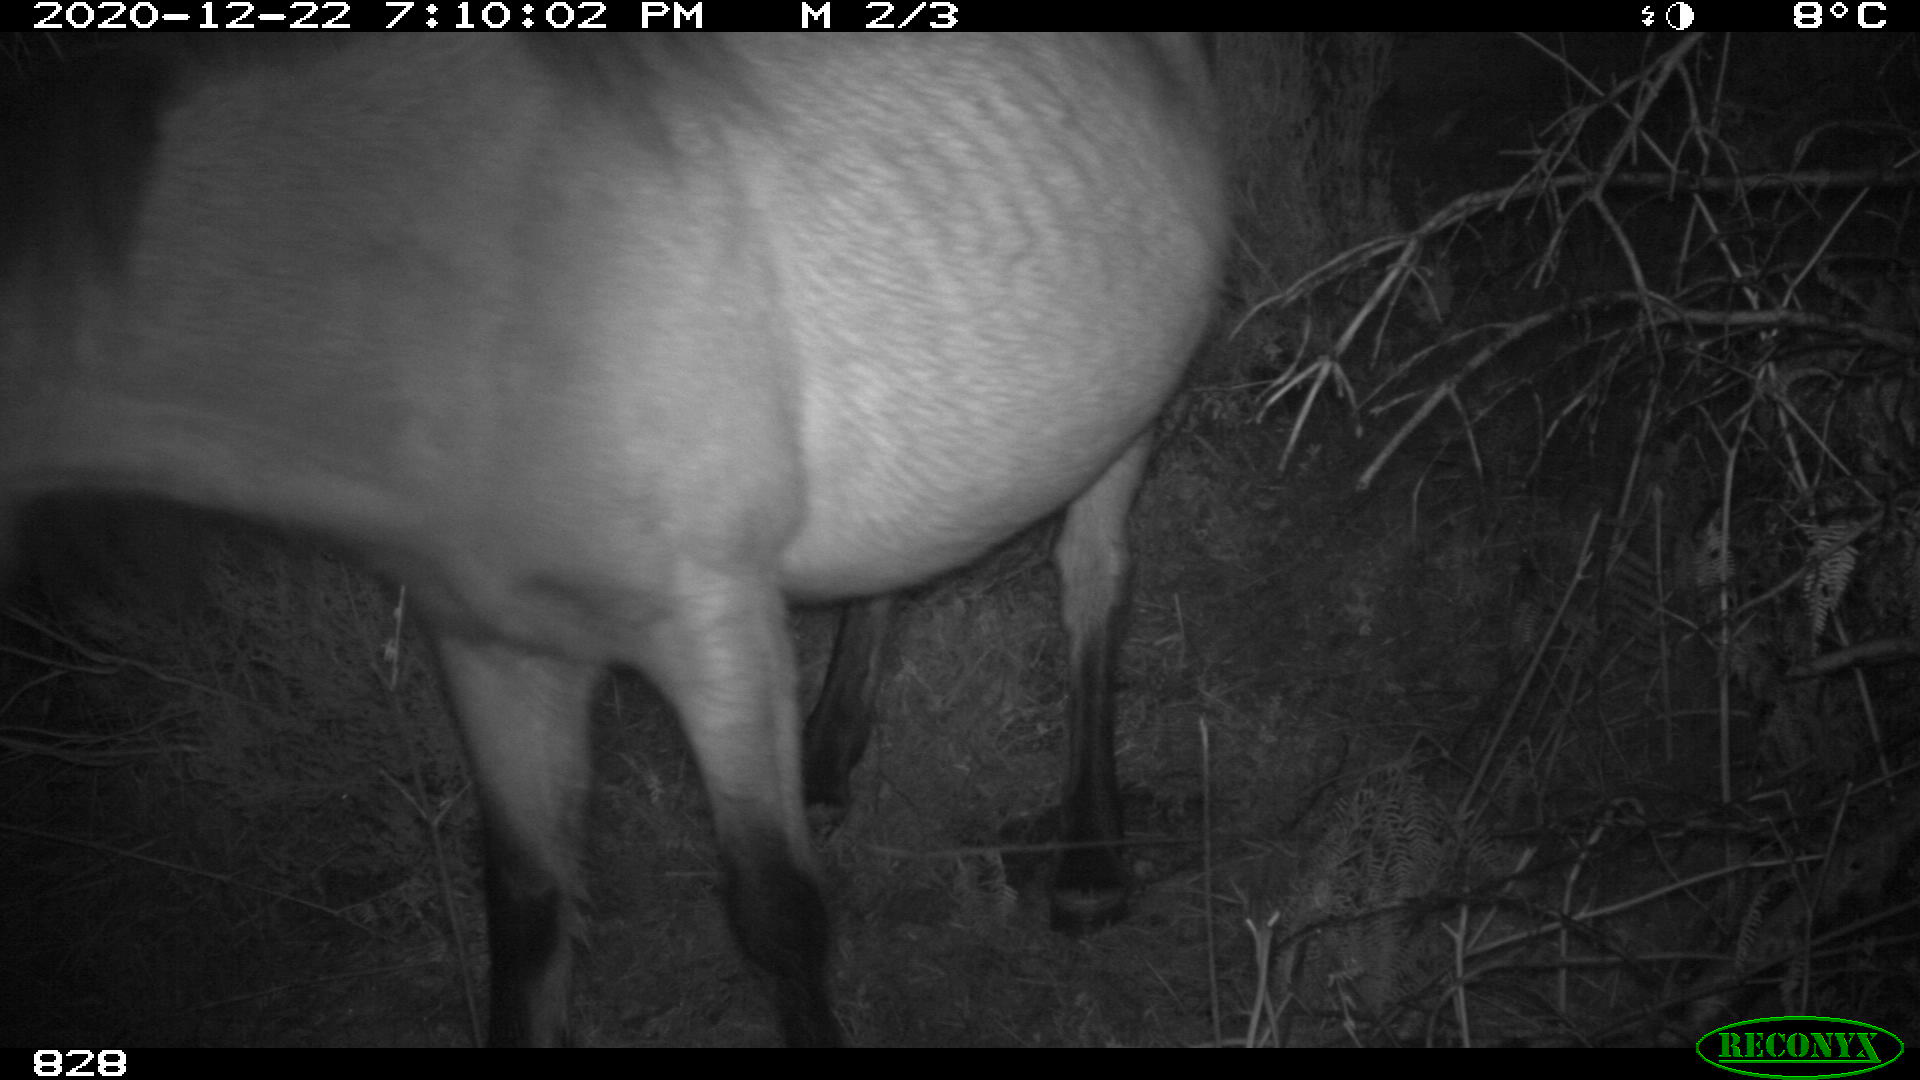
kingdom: Animalia
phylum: Chordata
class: Mammalia
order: Perissodactyla
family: Equidae
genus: Equus
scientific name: Equus caballus
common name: Horse
